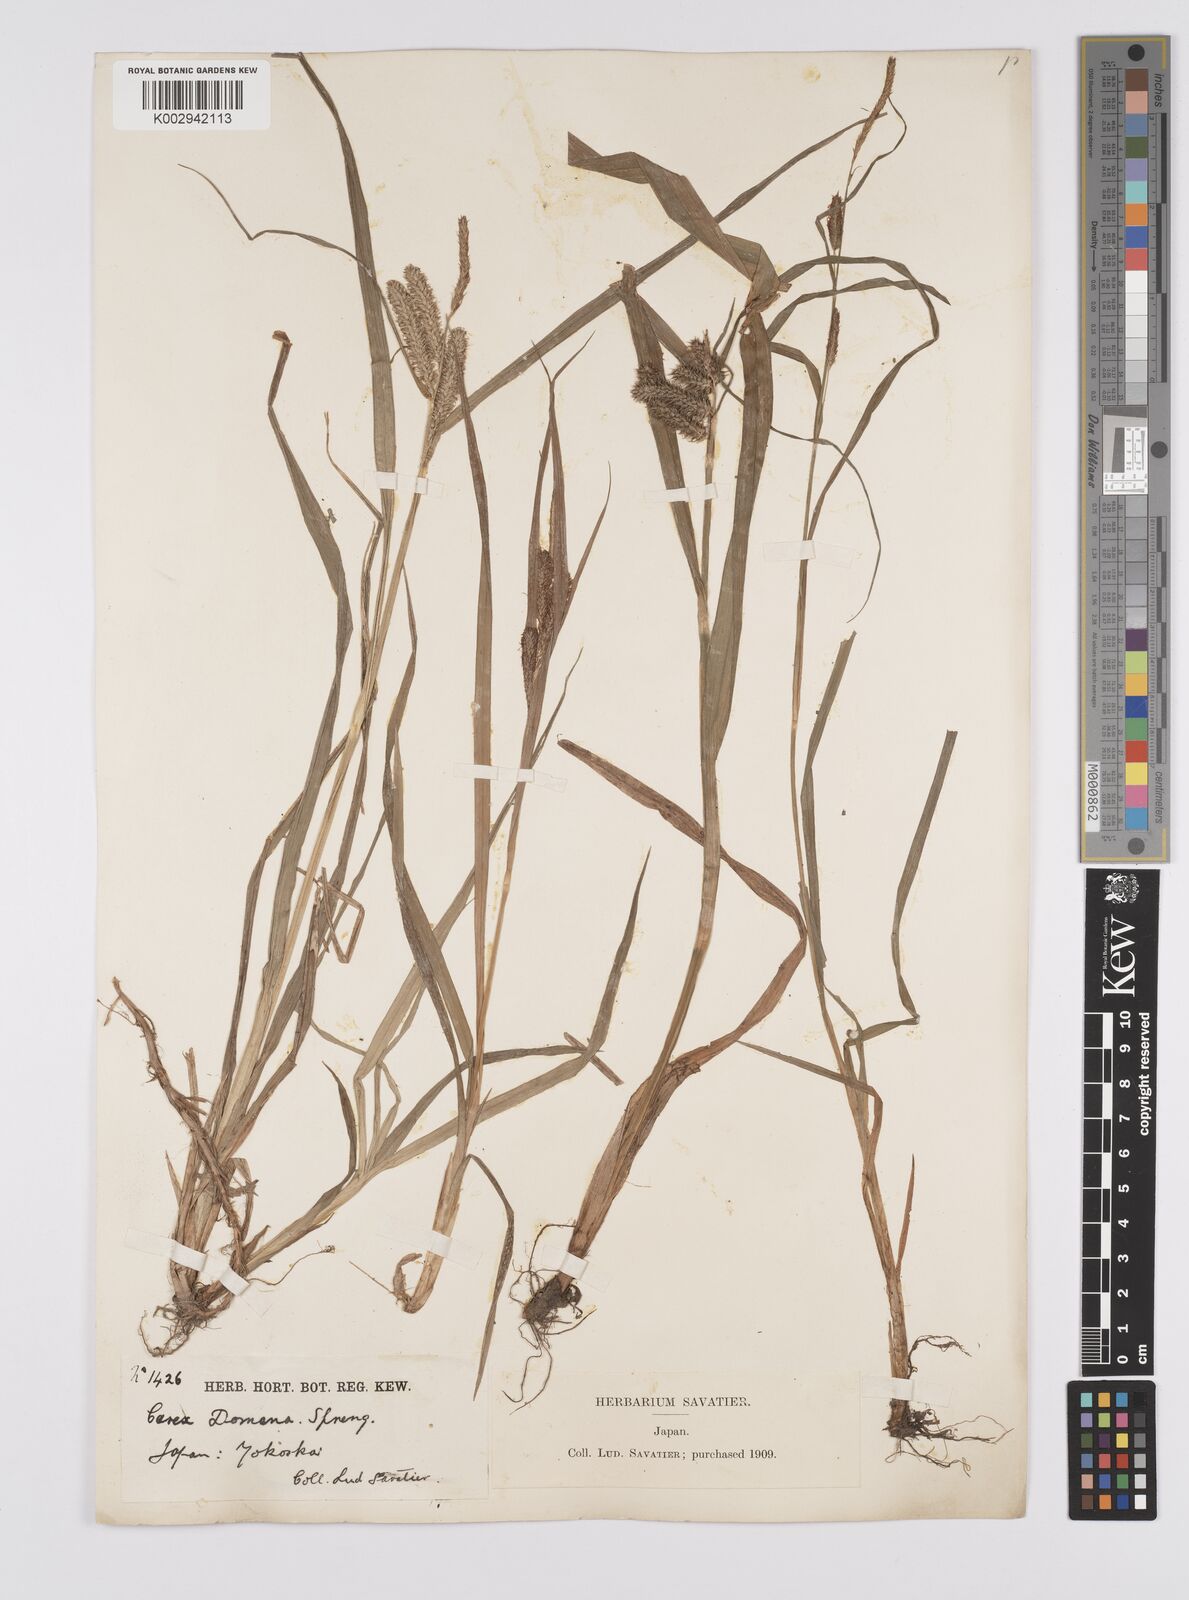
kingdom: Plantae
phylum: Tracheophyta
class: Liliopsida
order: Poales
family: Cyperaceae
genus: Carex
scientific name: Carex japonica
